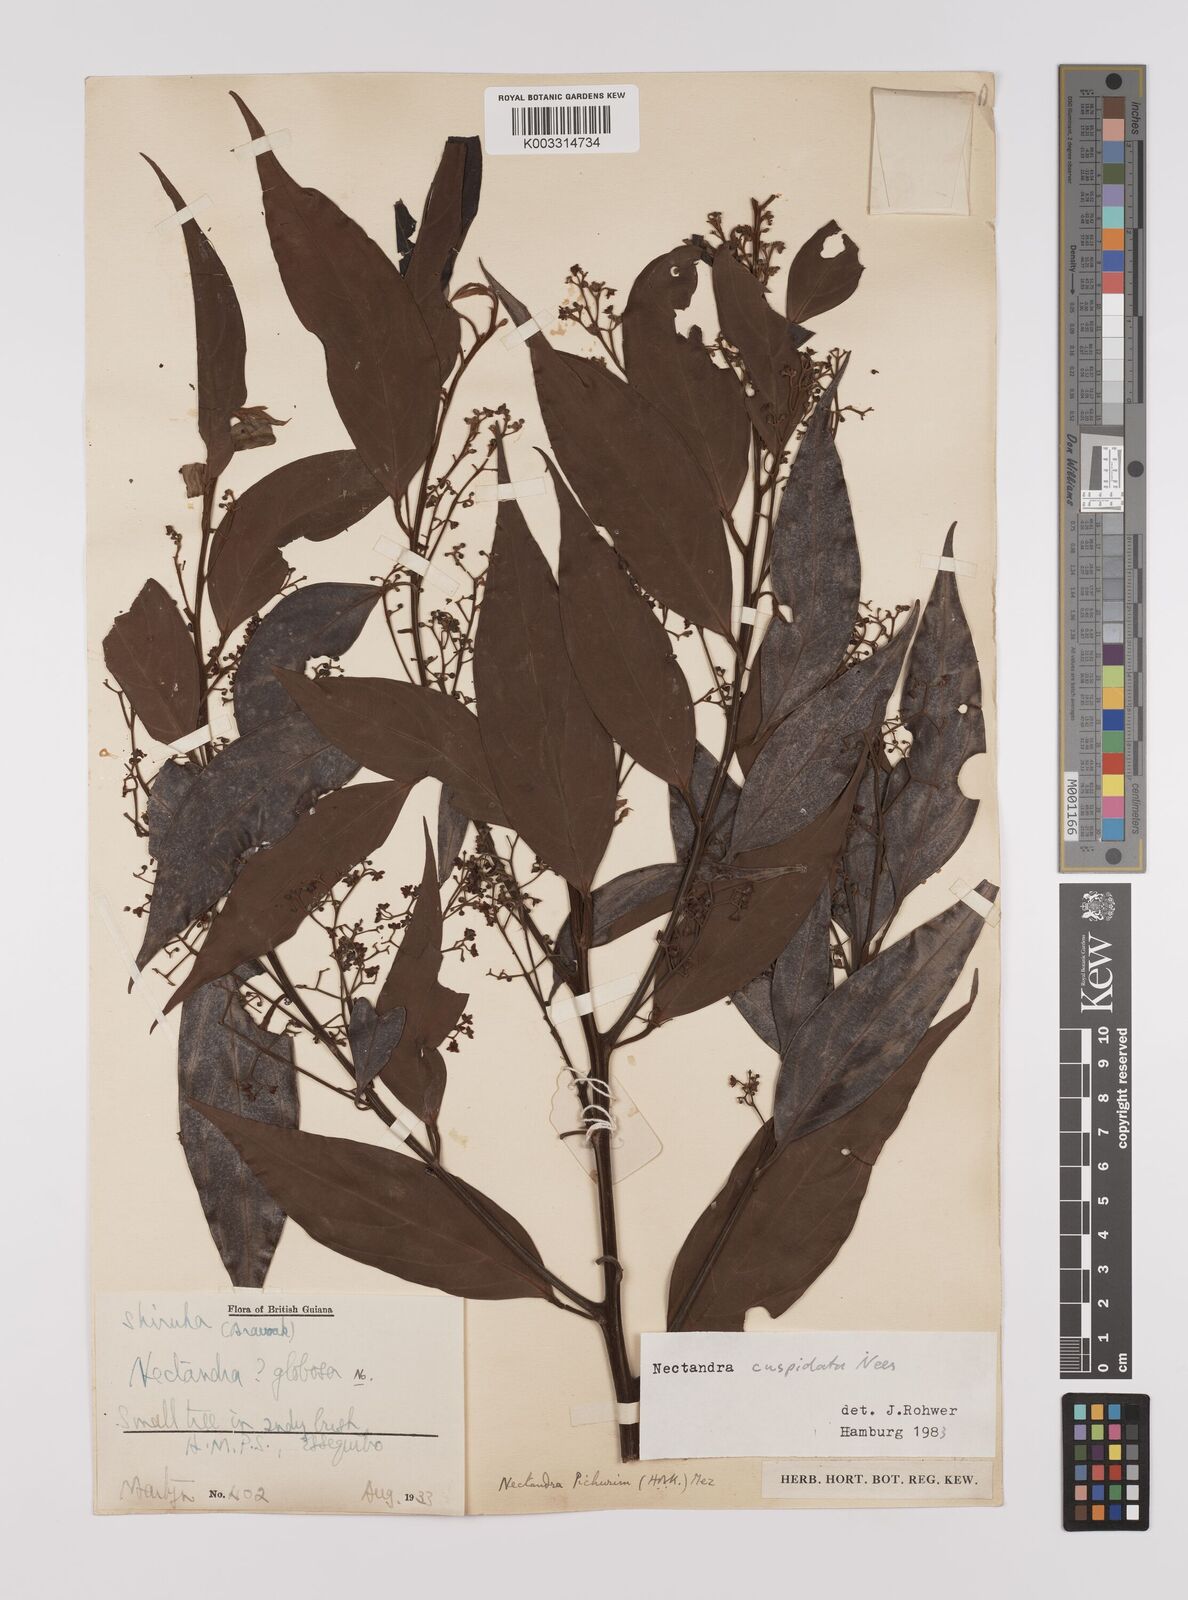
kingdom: Plantae
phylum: Tracheophyta
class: Magnoliopsida
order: Laurales
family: Lauraceae
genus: Nectandra
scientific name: Nectandra cuspidata
